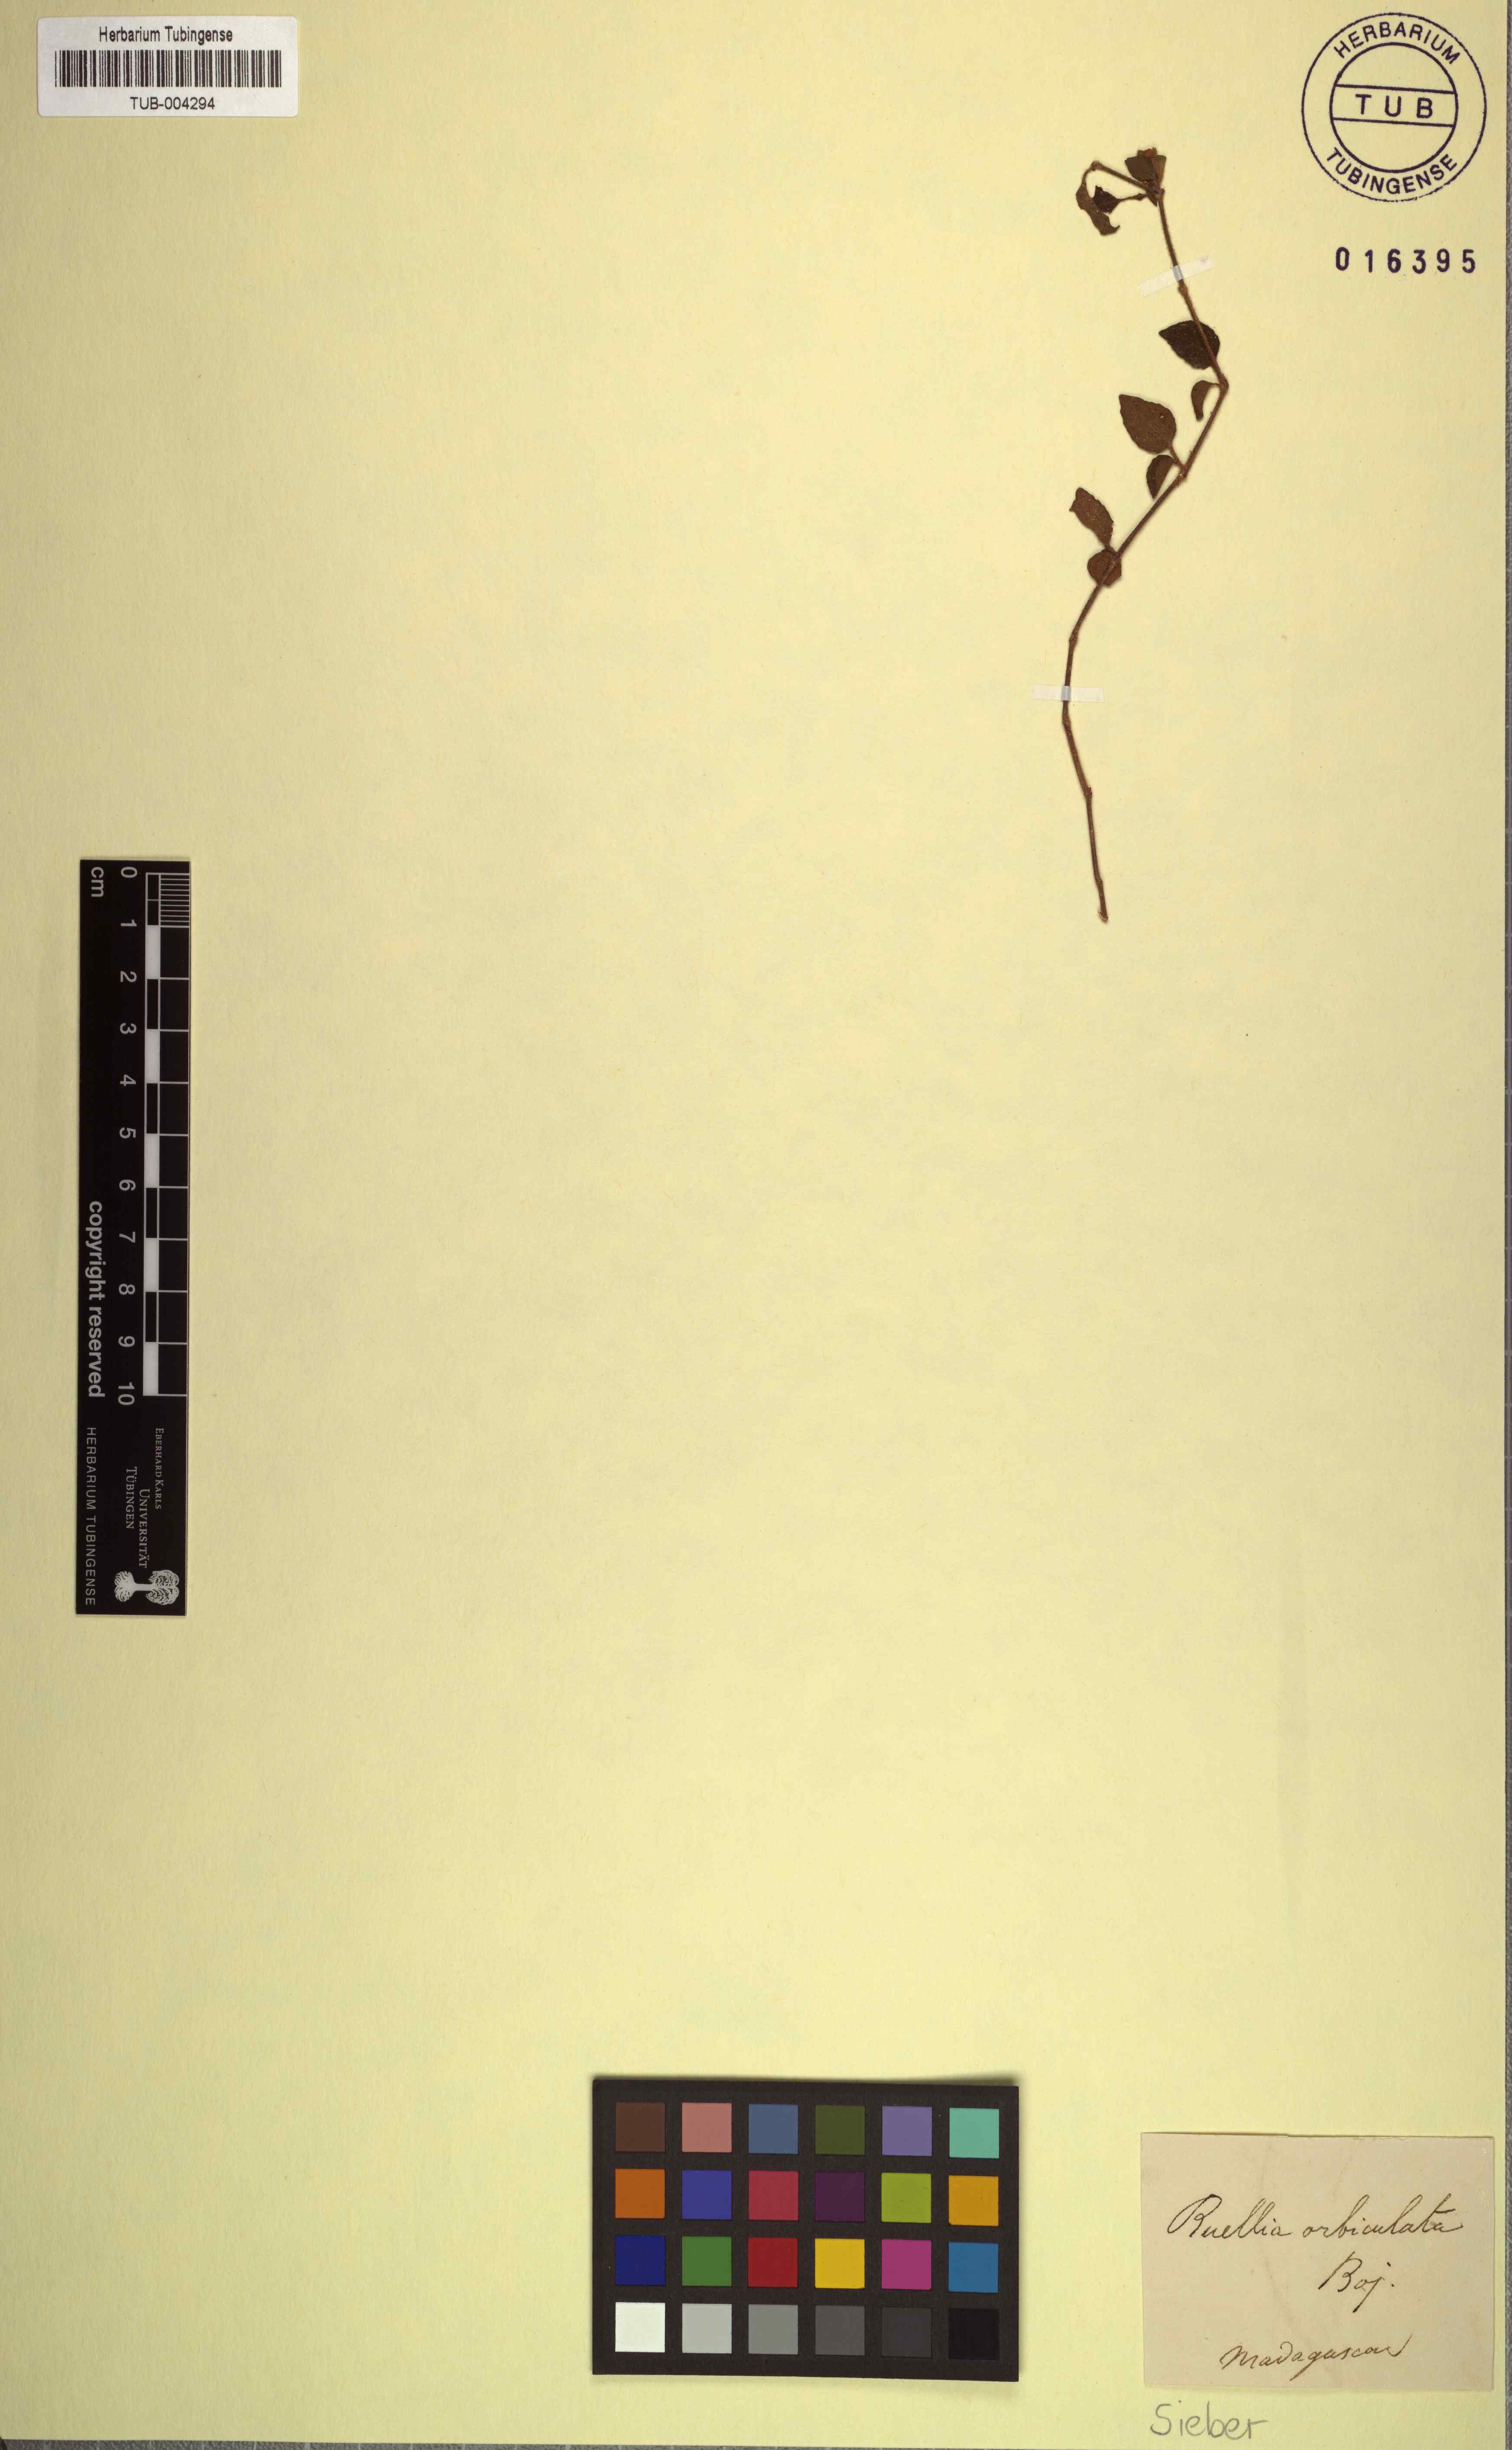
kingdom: Plantae
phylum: Tracheophyta
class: Magnoliopsida
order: Lamiales
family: Acanthaceae
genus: Ruellia
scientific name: Ruellia
